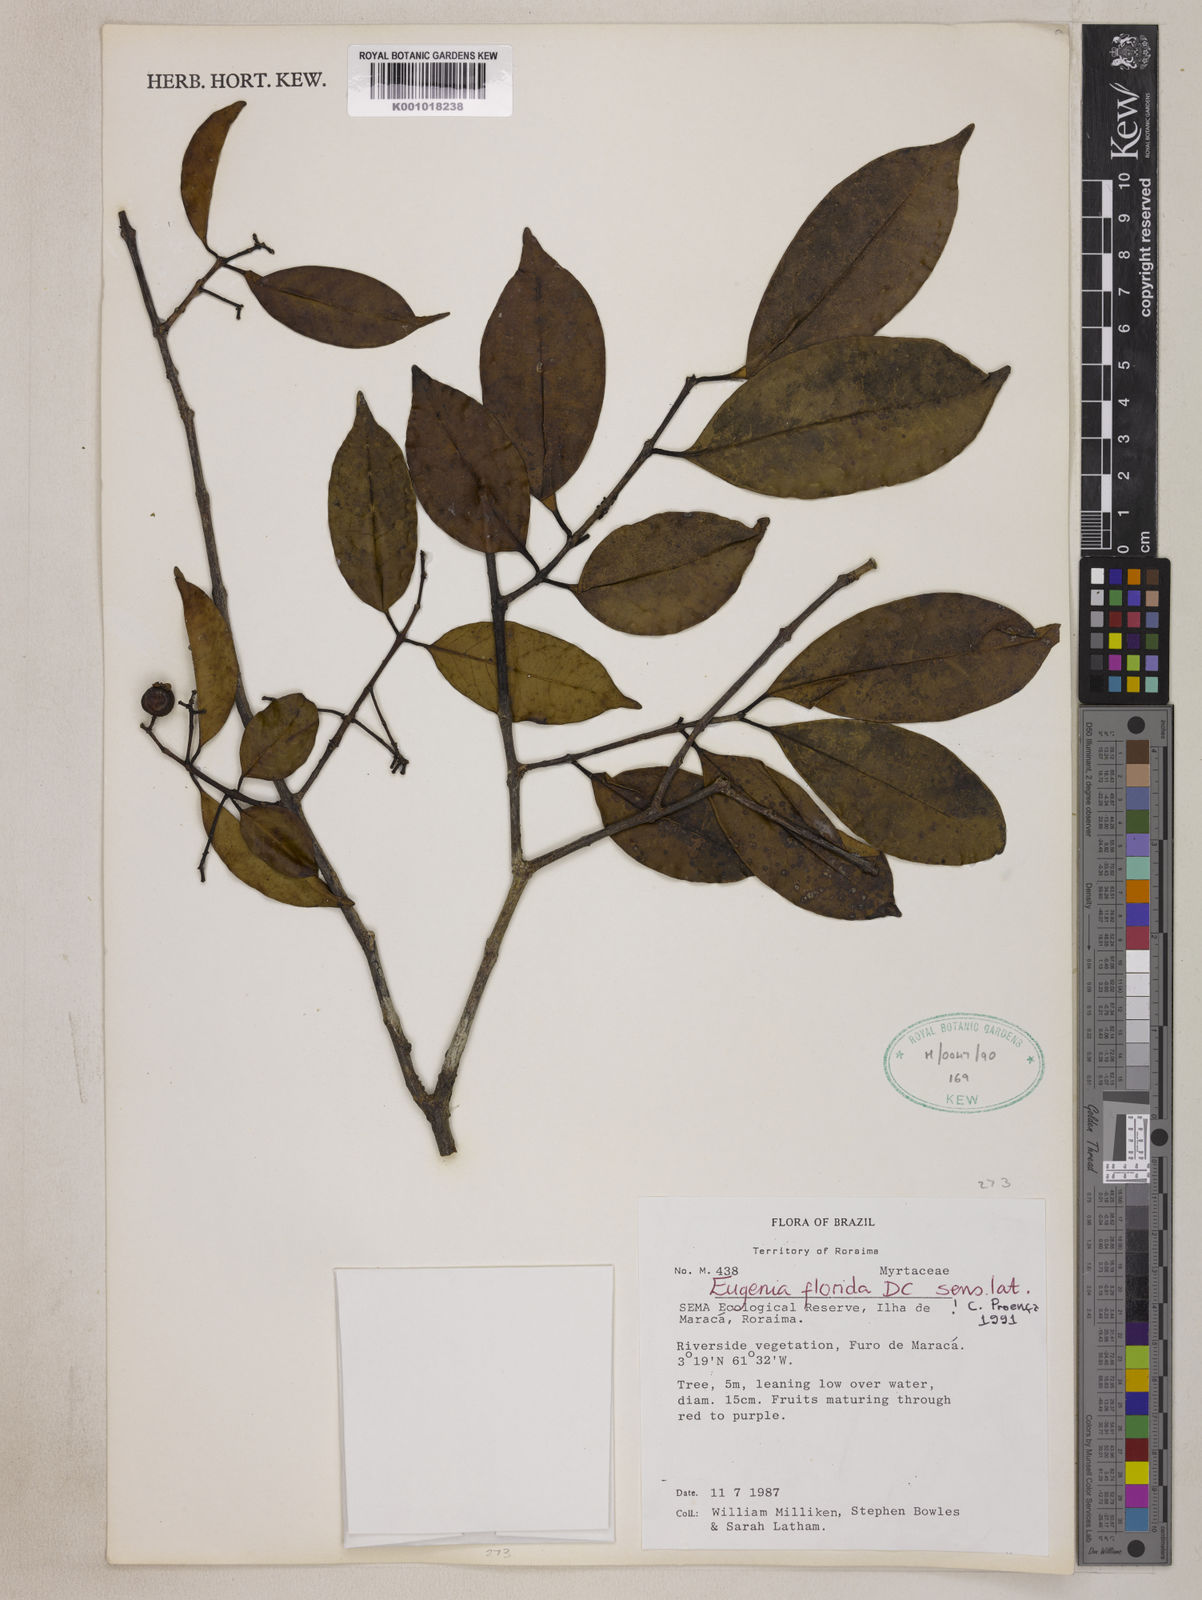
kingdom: Plantae
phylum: Tracheophyta
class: Magnoliopsida
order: Myrtales
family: Myrtaceae
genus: Eugenia
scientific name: Eugenia florida
